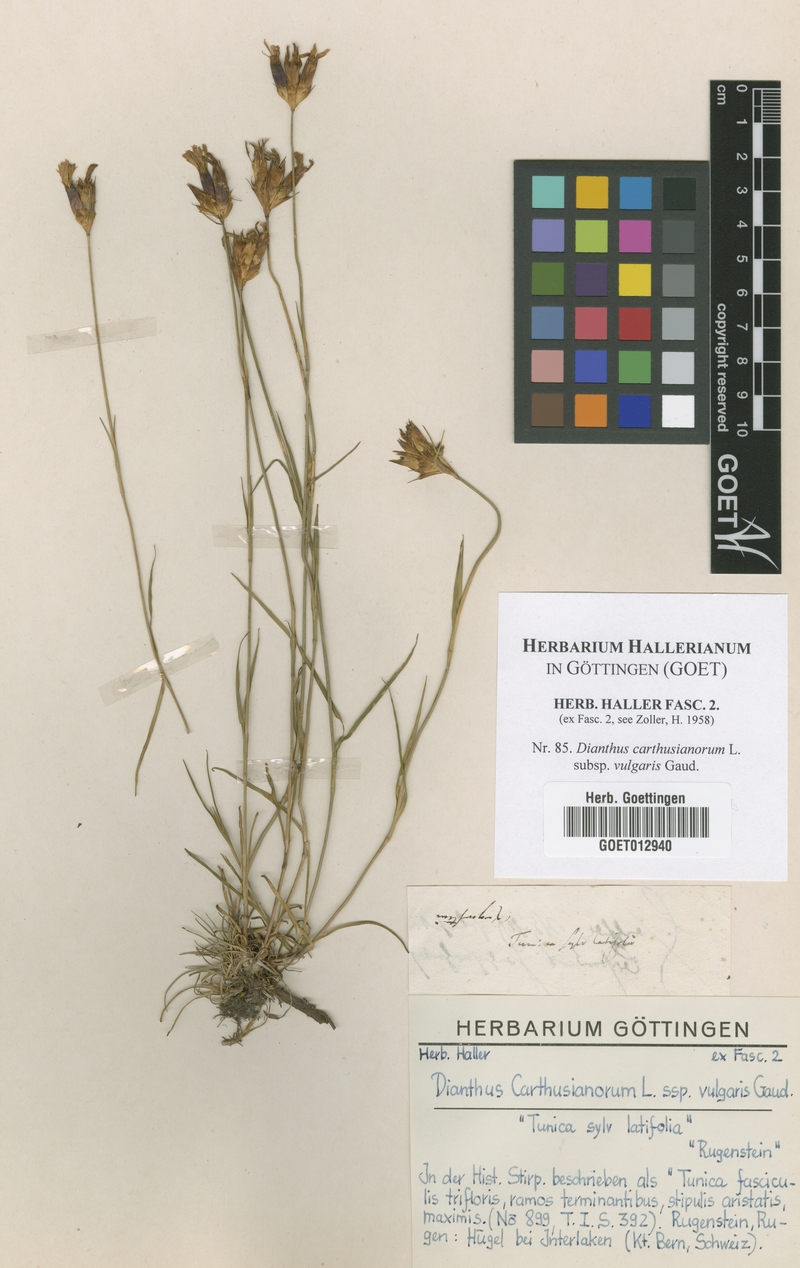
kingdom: Plantae
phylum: Tracheophyta
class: Magnoliopsida
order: Caryophyllales
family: Caryophyllaceae
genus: Dianthus
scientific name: Dianthus carthusianorum
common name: Carthusian pink
